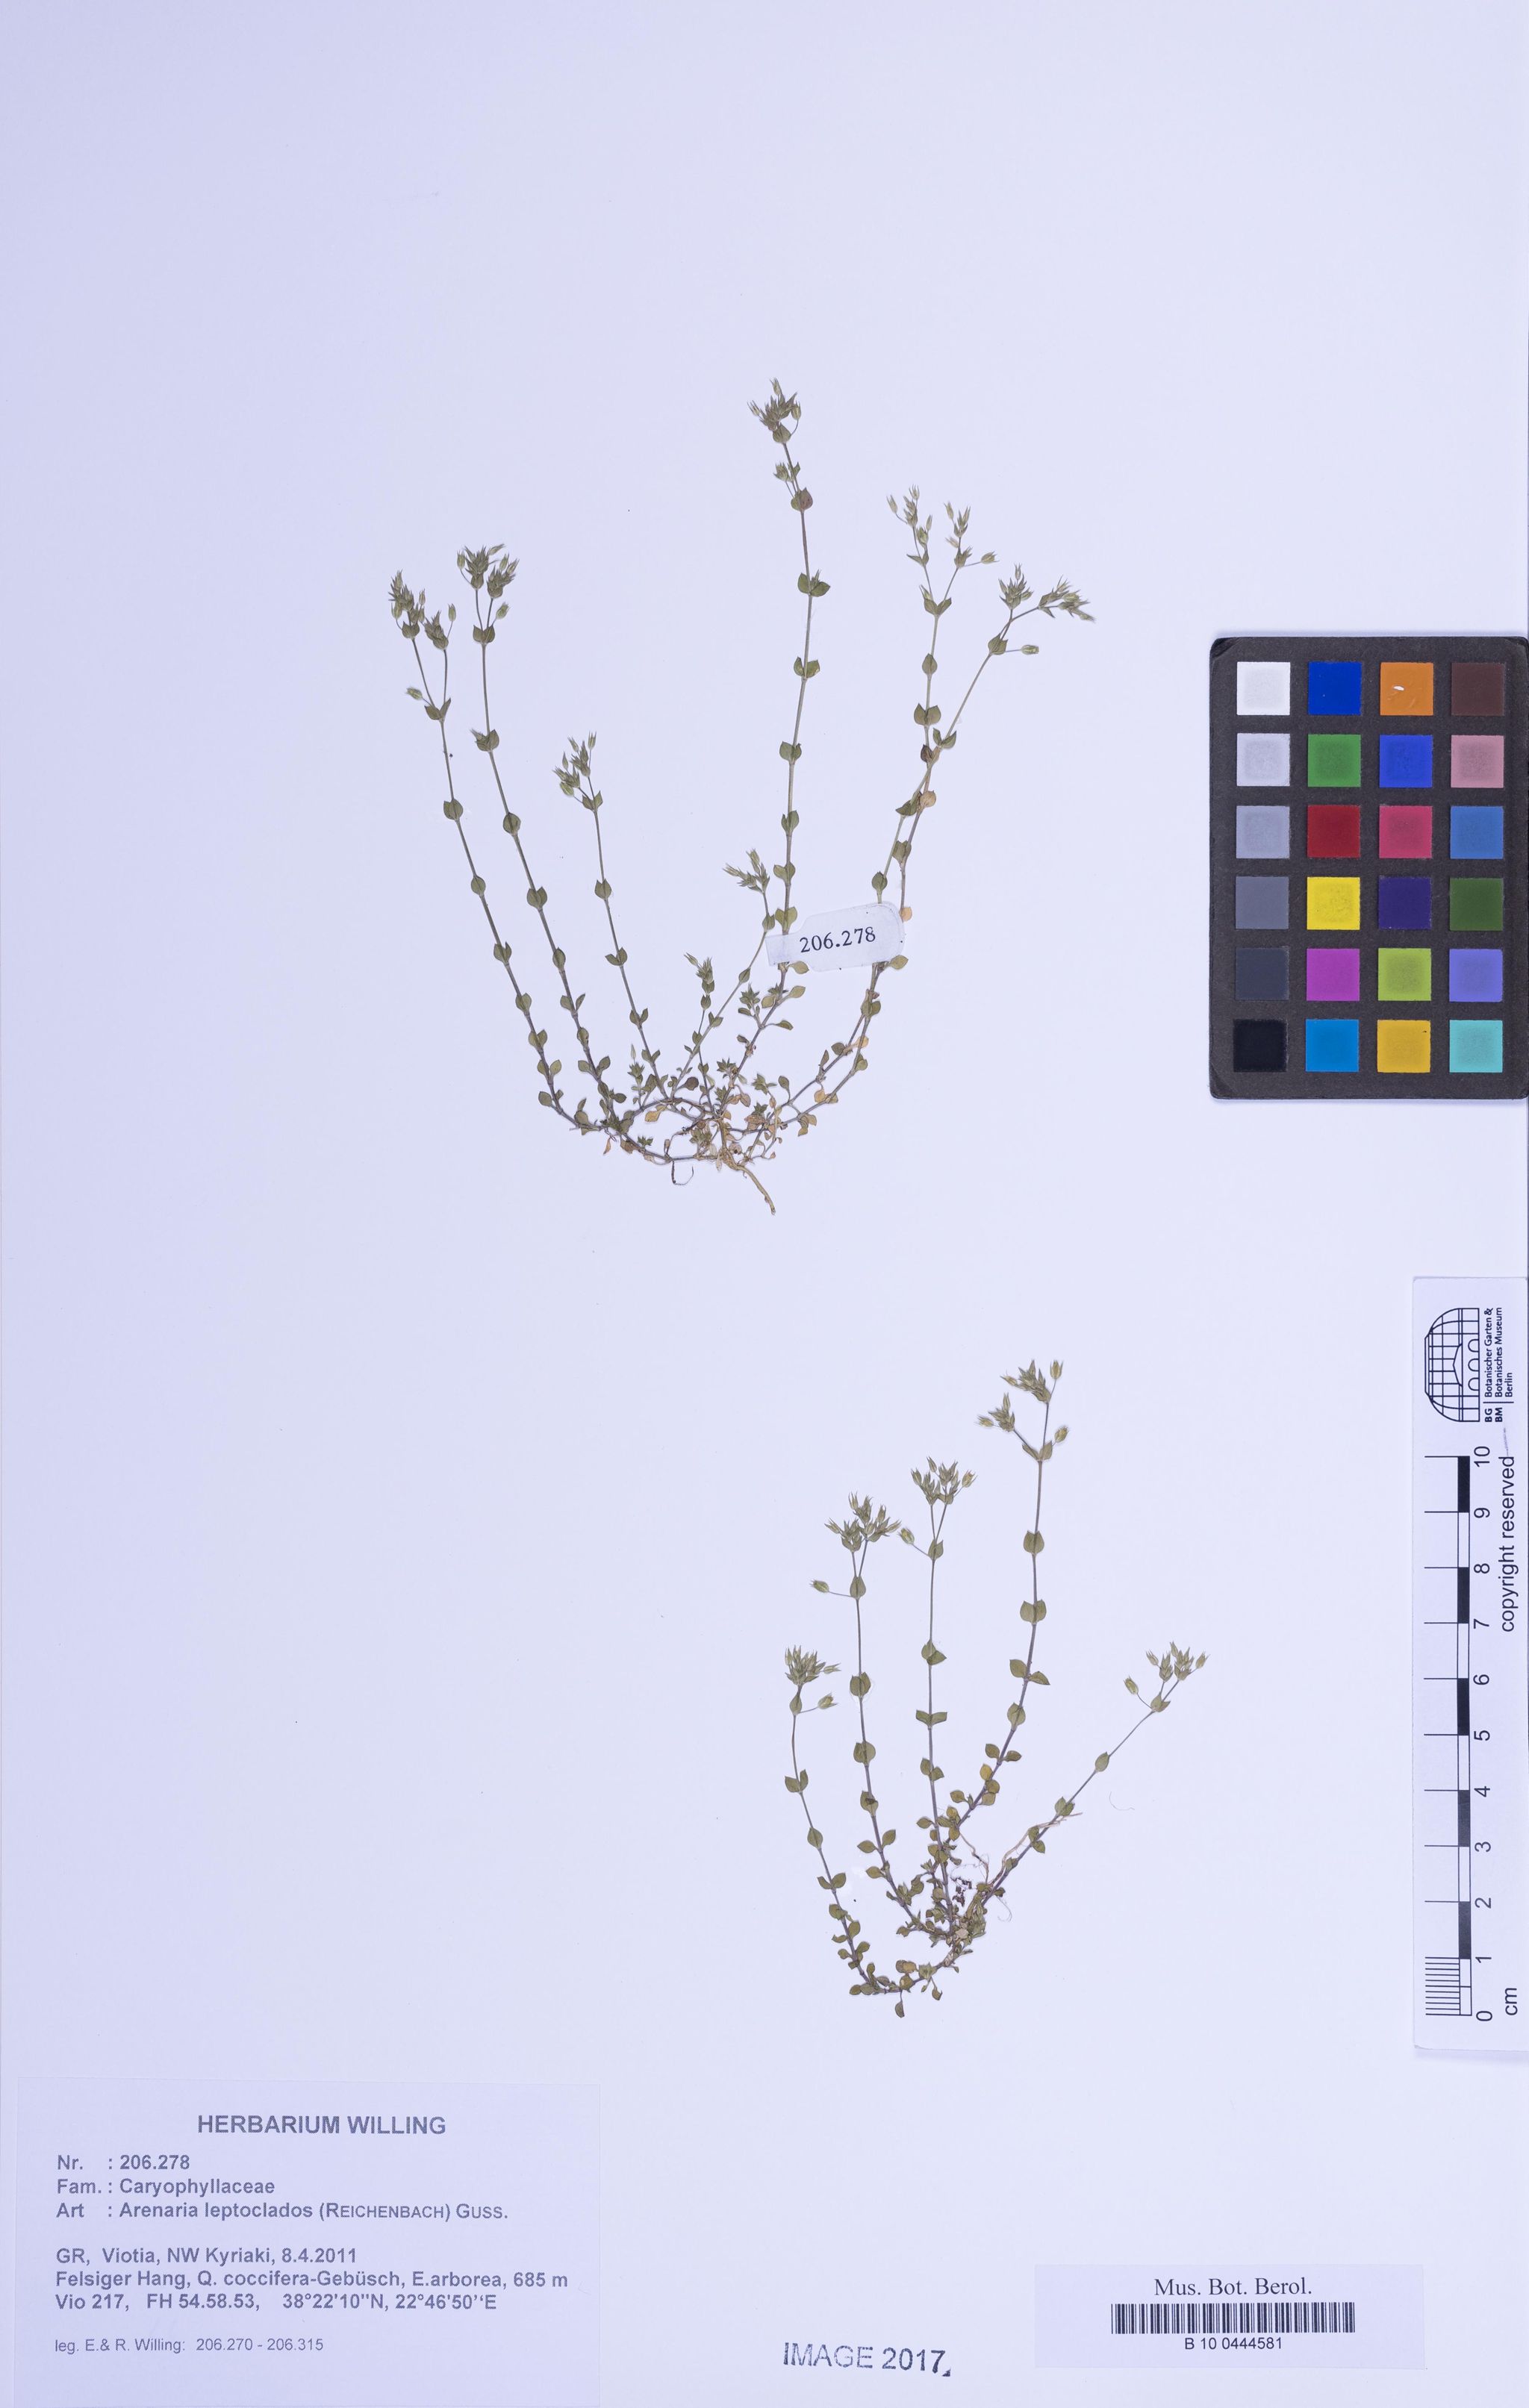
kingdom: Plantae
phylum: Tracheophyta
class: Magnoliopsida
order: Caryophyllales
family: Caryophyllaceae
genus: Arenaria
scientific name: Arenaria leptoclados
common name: Thyme-leaved sandwort
